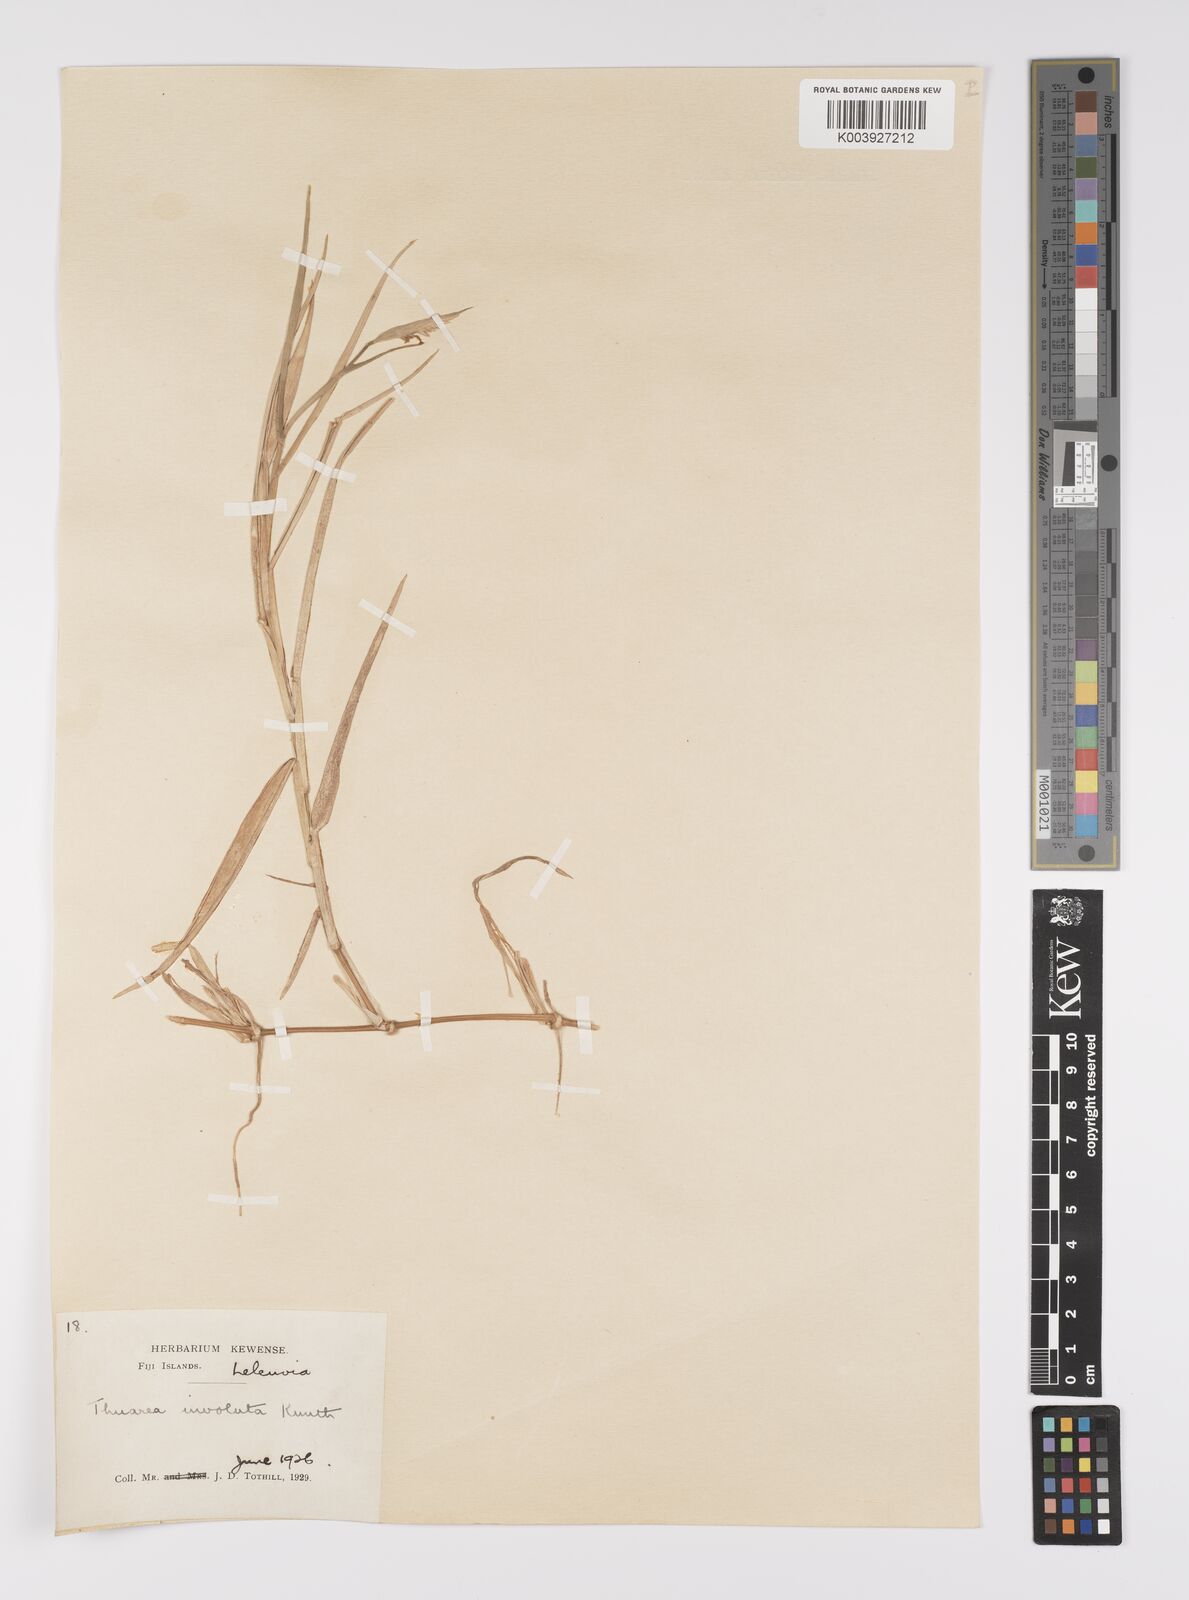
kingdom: Plantae
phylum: Tracheophyta
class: Liliopsida
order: Poales
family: Poaceae
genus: Thuarea
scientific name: Thuarea involuta
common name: Tropical beach grass
